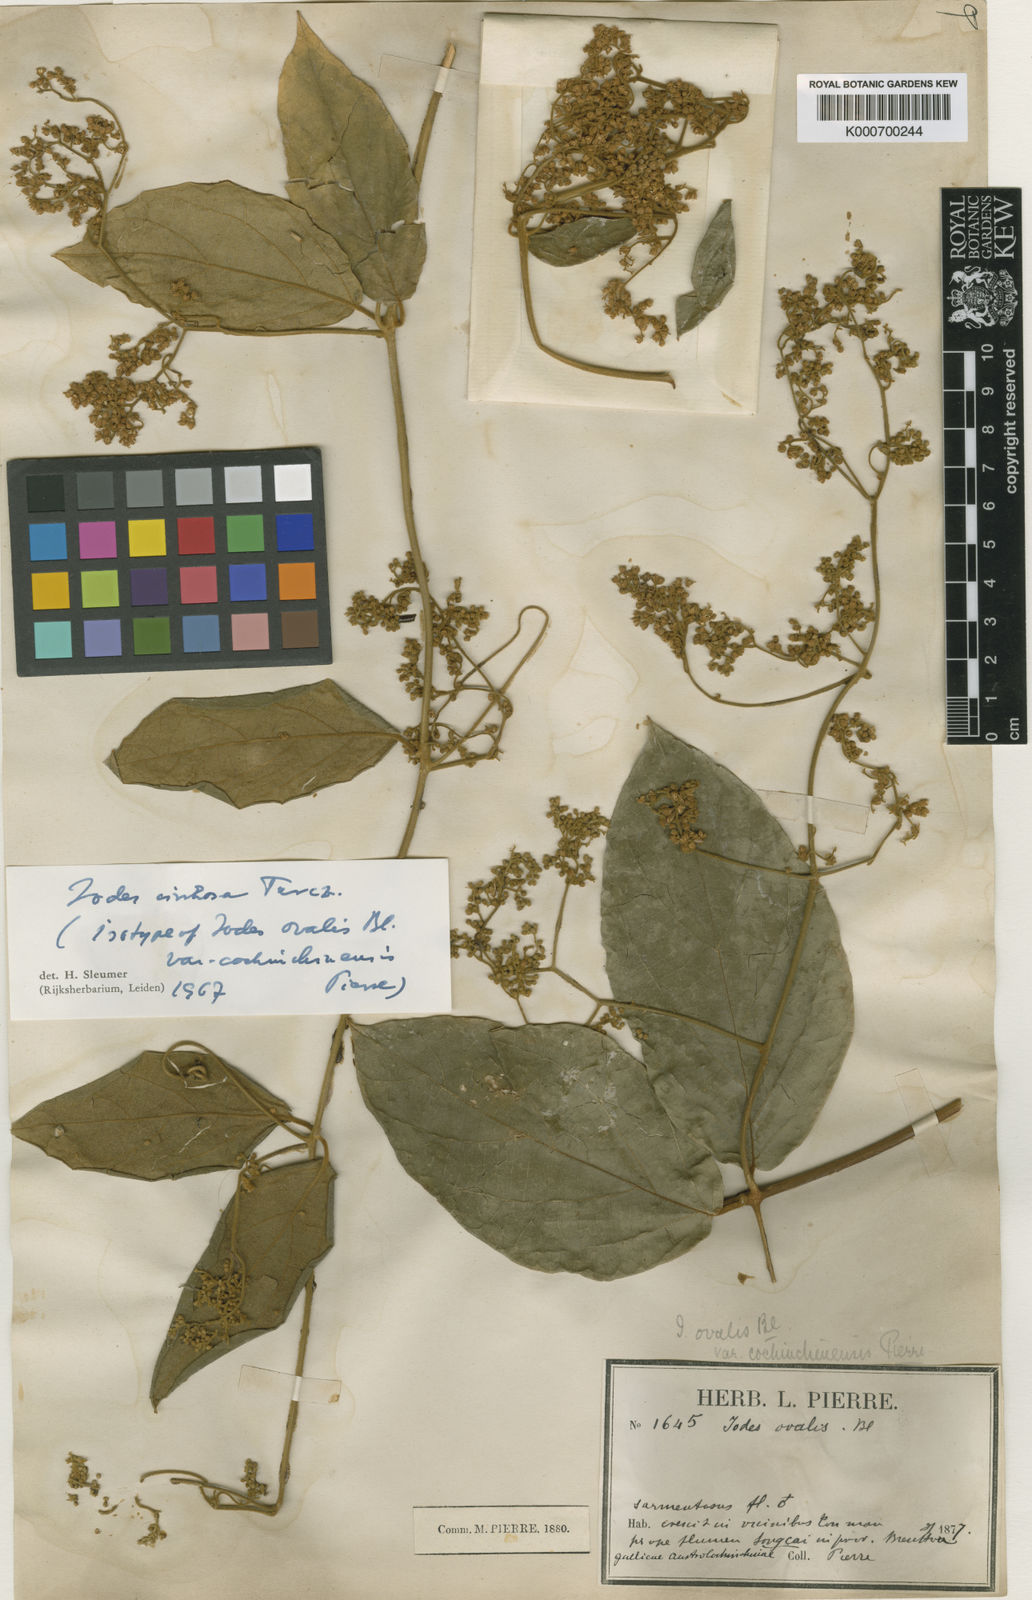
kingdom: Plantae
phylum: Tracheophyta
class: Magnoliopsida
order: Icacinales
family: Icacinaceae
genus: Iodes
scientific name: Iodes cirrhosa
